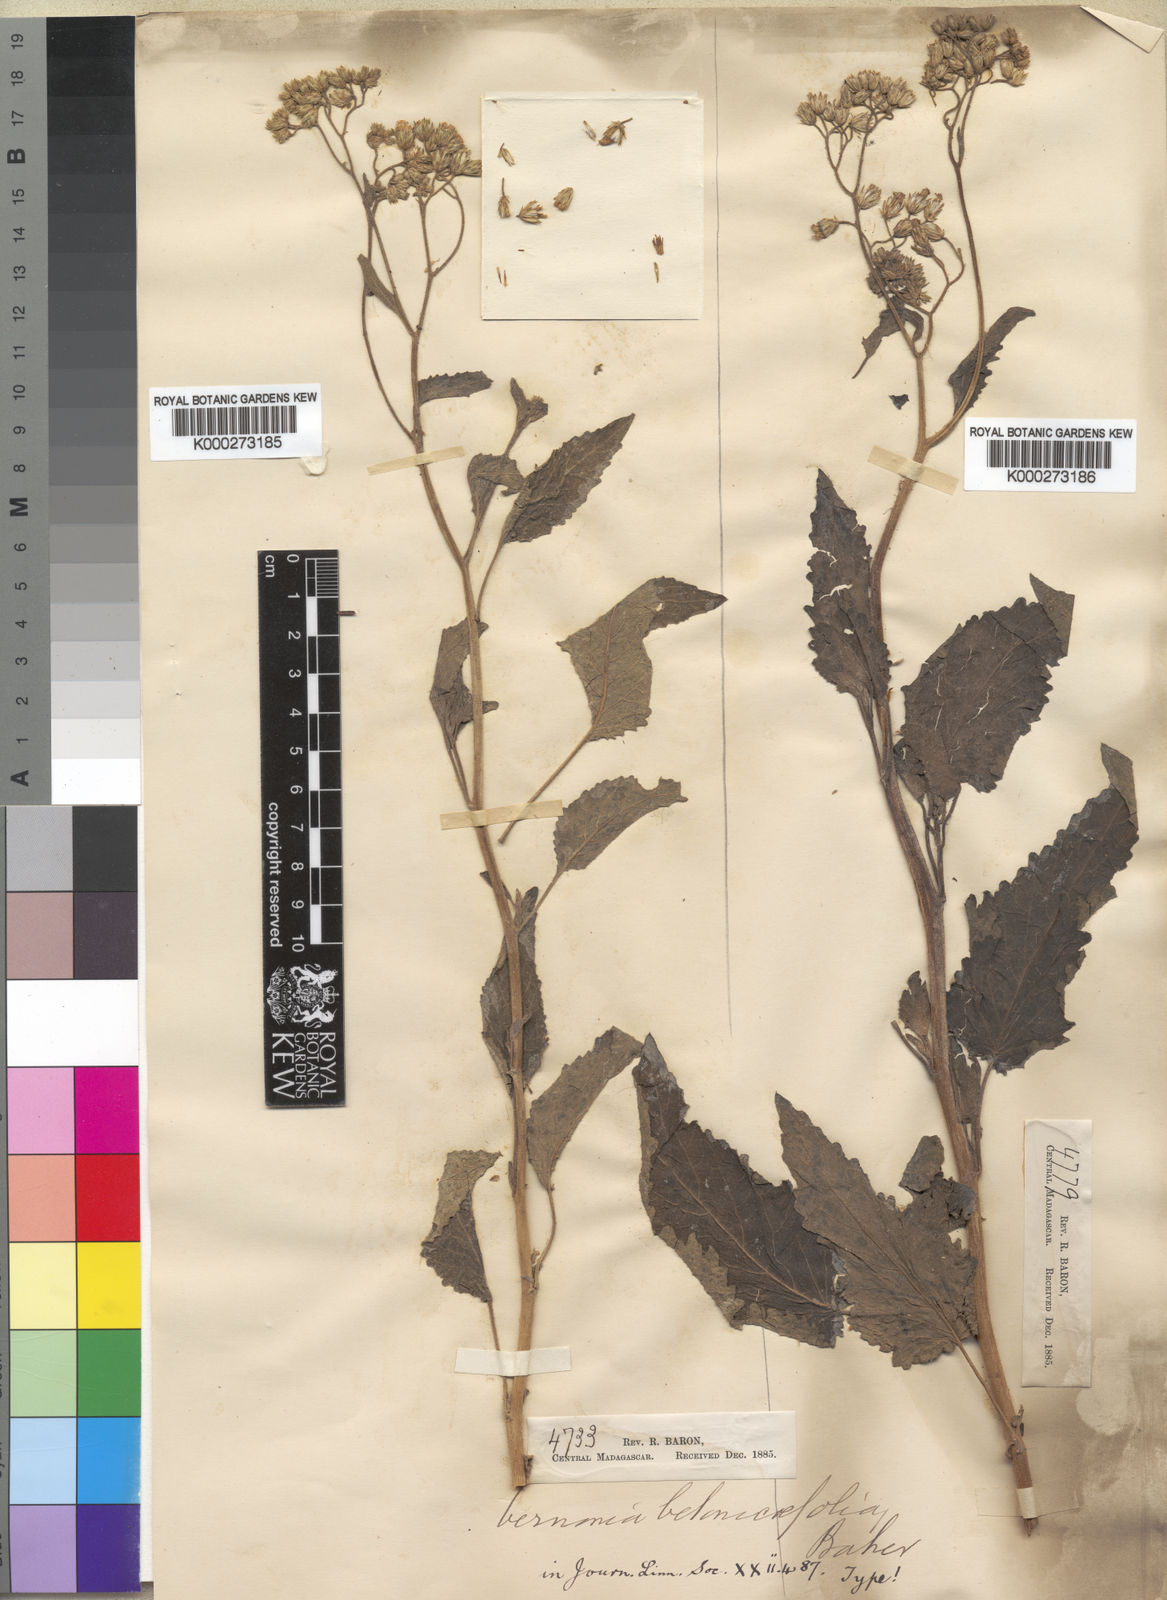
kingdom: Plantae
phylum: Tracheophyta
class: Magnoliopsida
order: Asterales
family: Asteraceae
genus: Cyanthillium
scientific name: Cyanthillium cinereum
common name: Little ironweed
